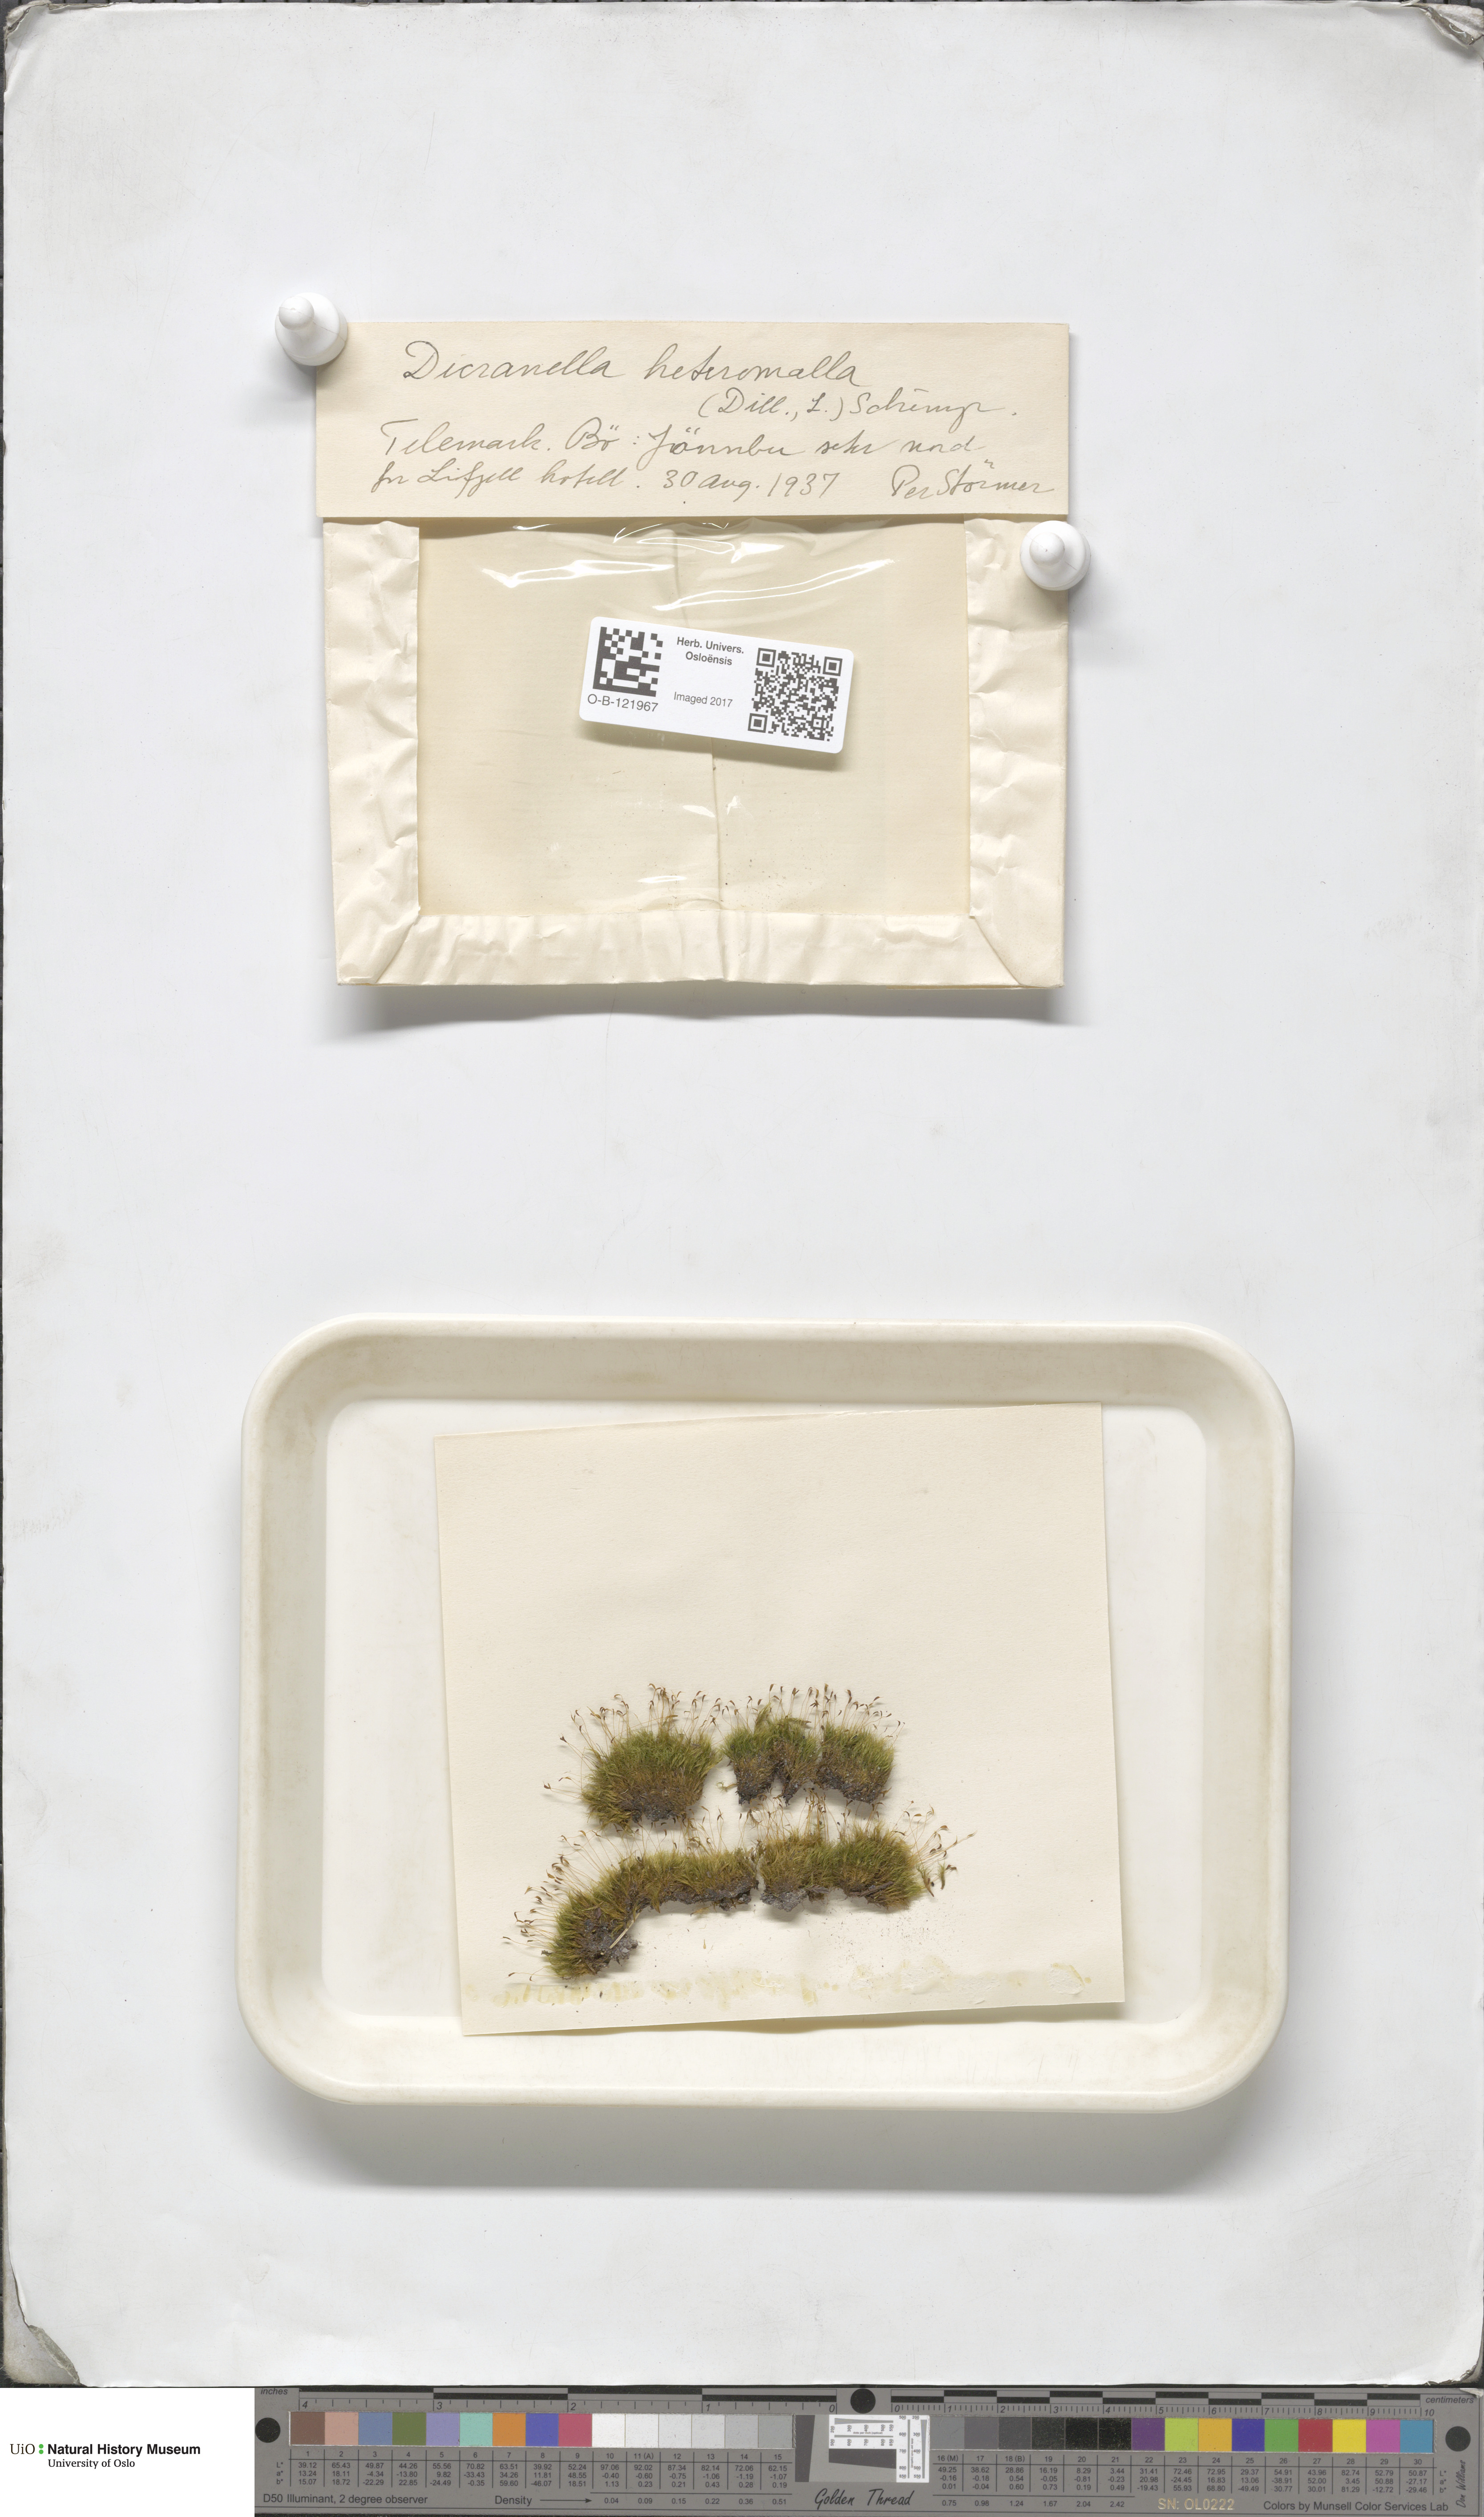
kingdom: Plantae
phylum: Bryophyta
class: Bryopsida
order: Dicranales
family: Dicranellaceae
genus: Dicranella
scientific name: Dicranella heteromalla
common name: Silky forklet moss
